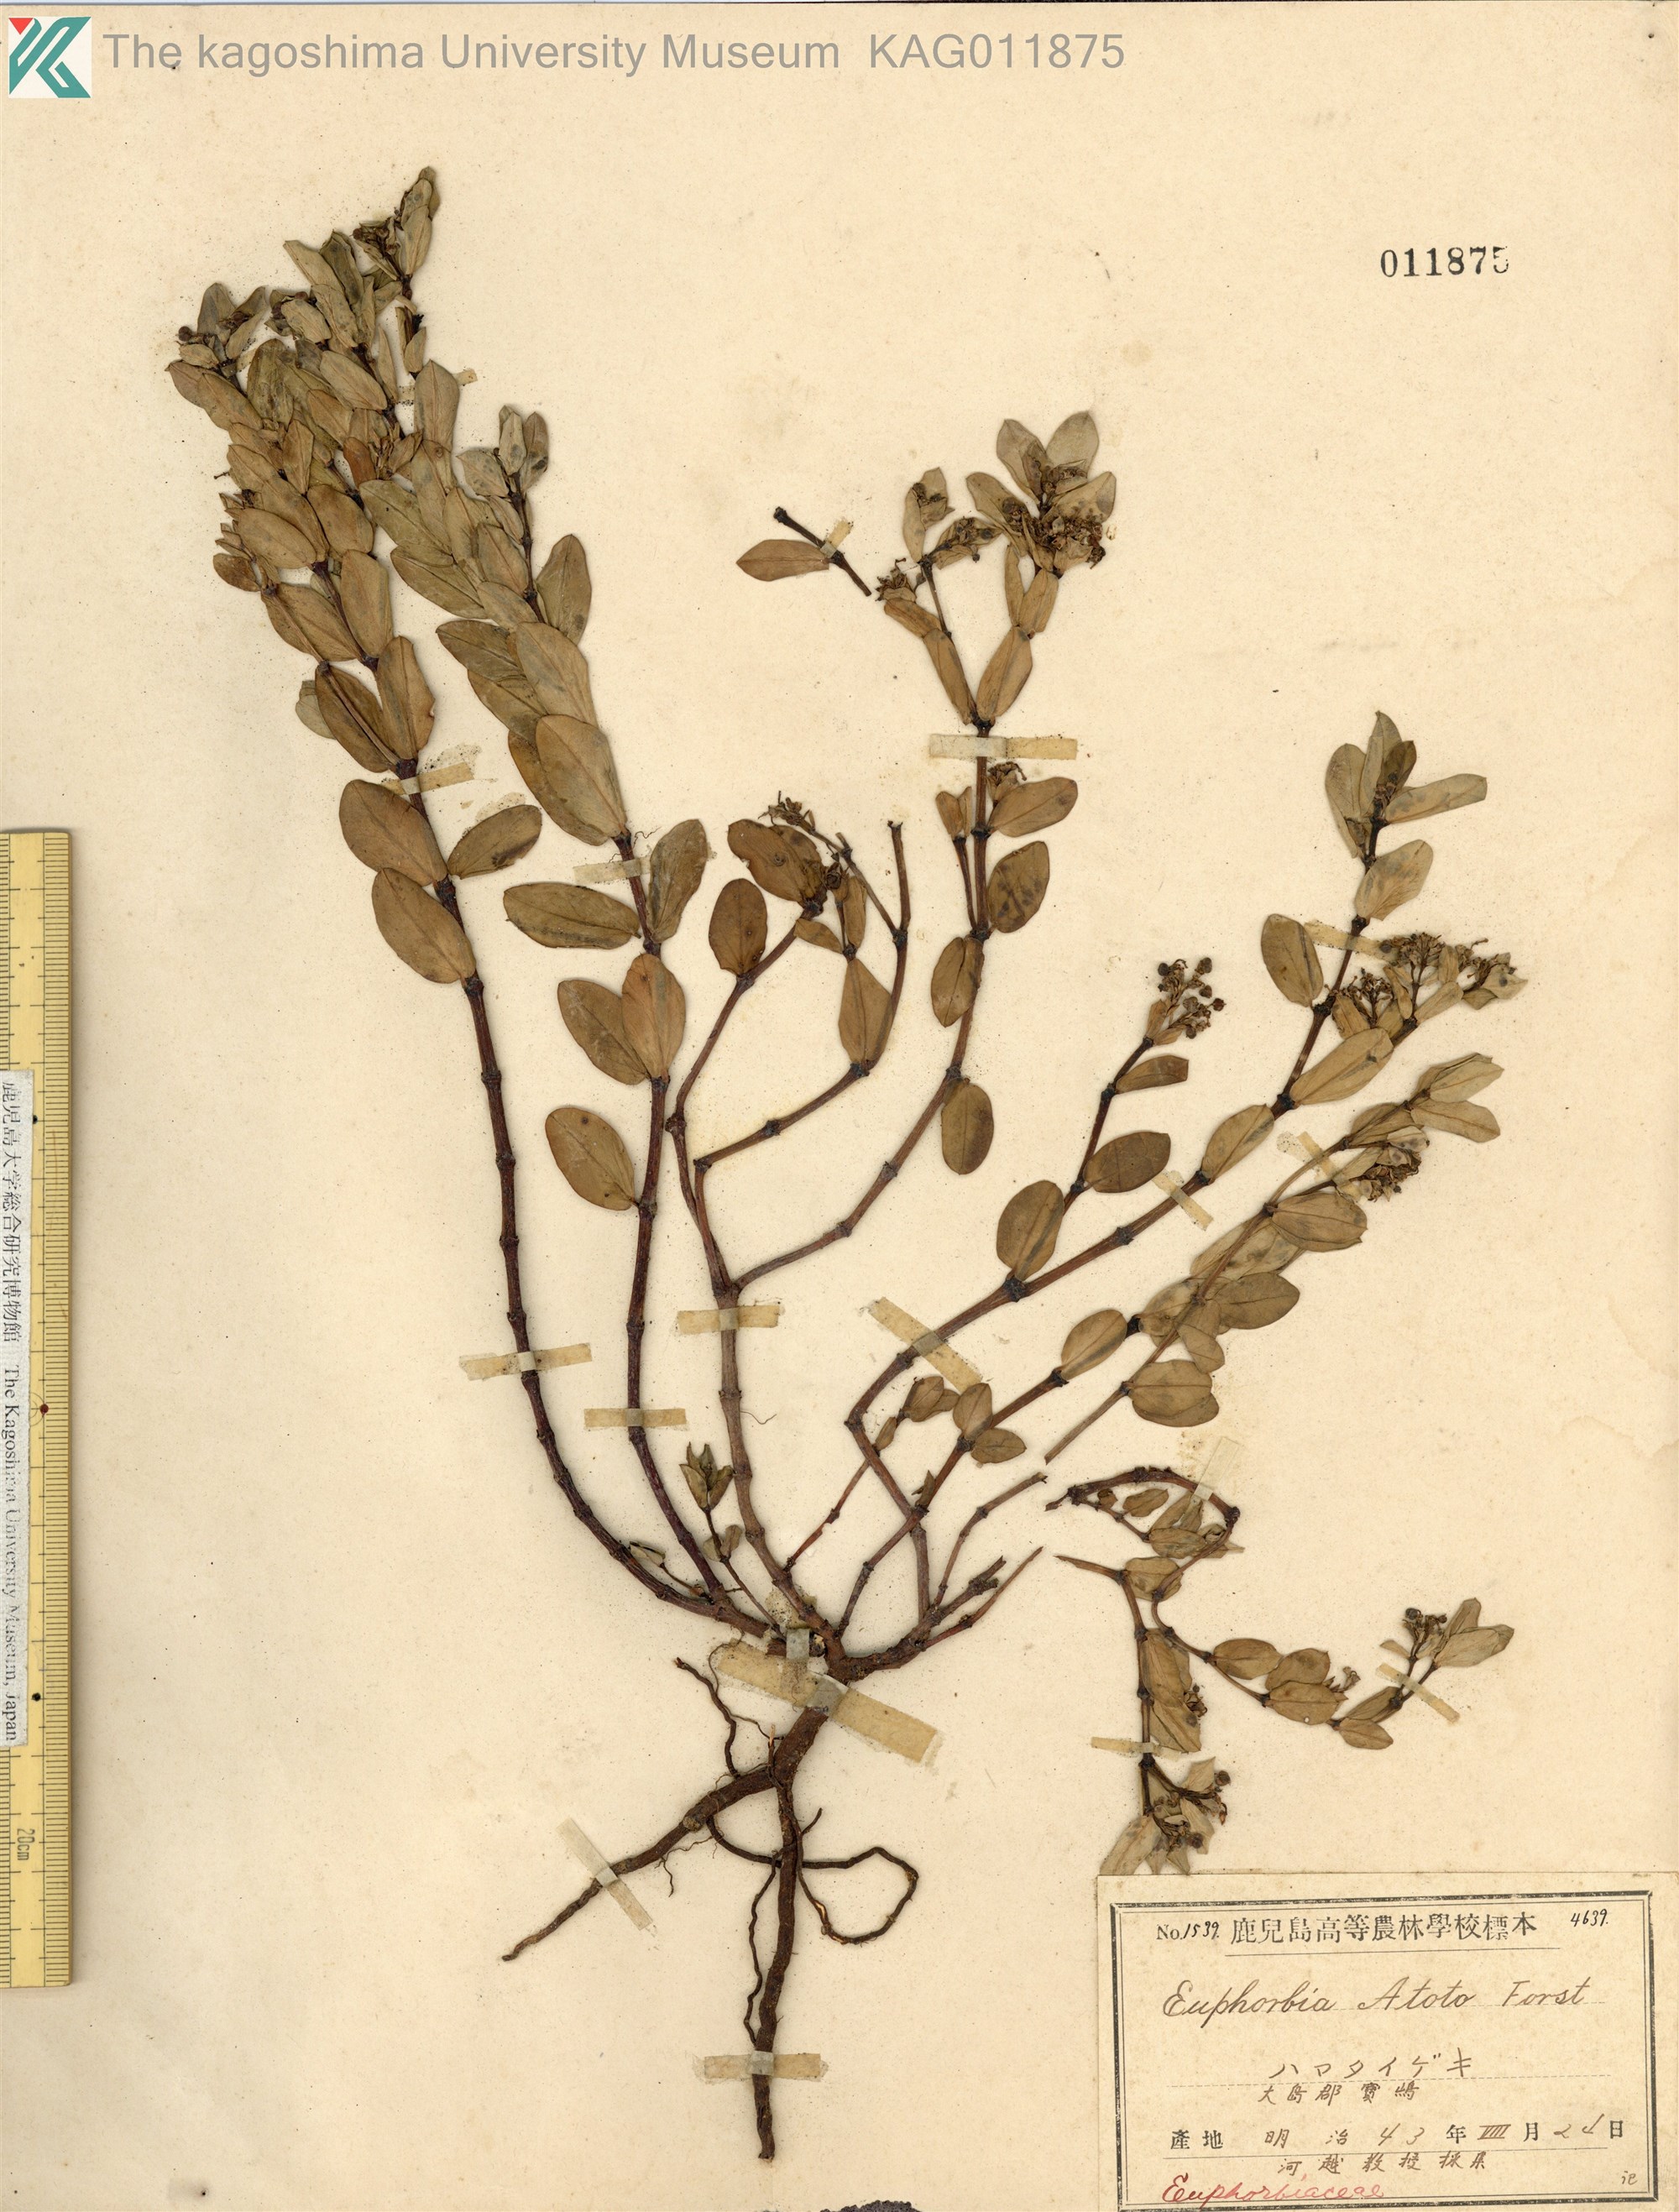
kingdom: Plantae
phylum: Tracheophyta
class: Magnoliopsida
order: Malpighiales
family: Euphorbiaceae
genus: Euphorbia
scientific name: Euphorbia chamissonis
